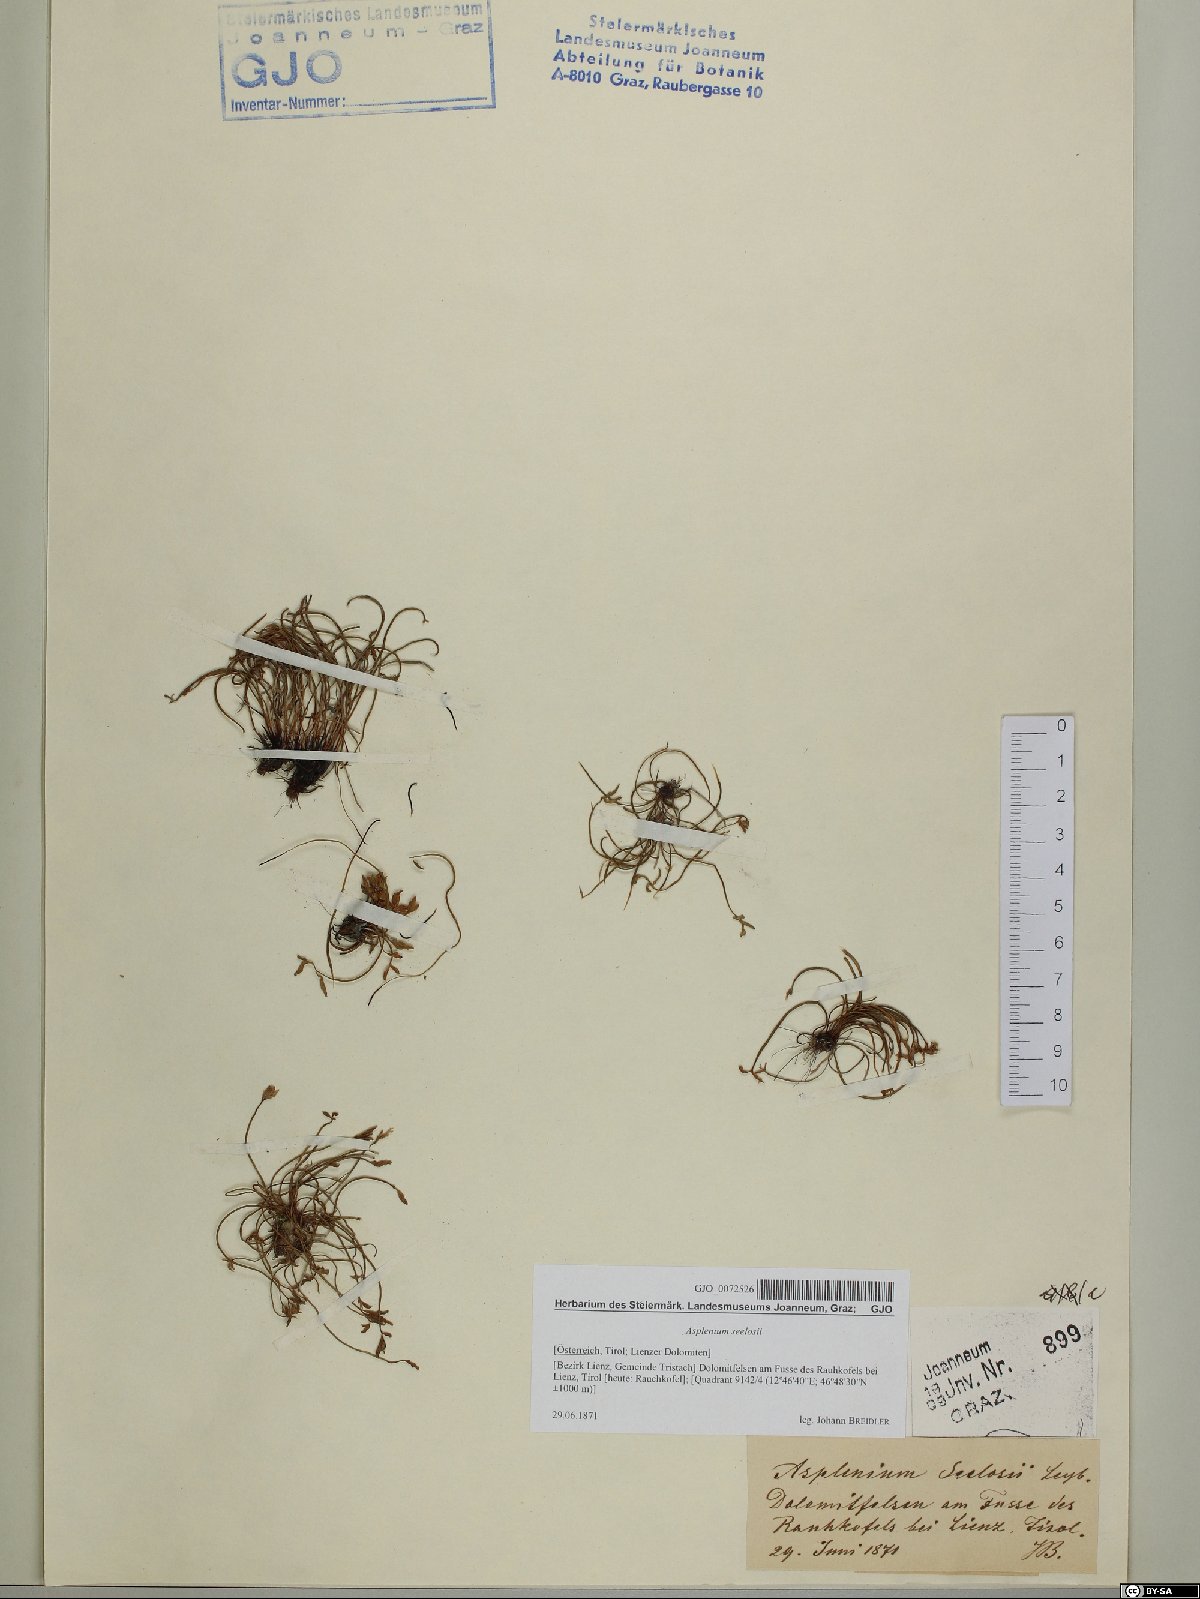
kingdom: Plantae
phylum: Tracheophyta
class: Polypodiopsida
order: Polypodiales
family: Aspleniaceae
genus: Asplenium
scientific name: Asplenium seelosii
